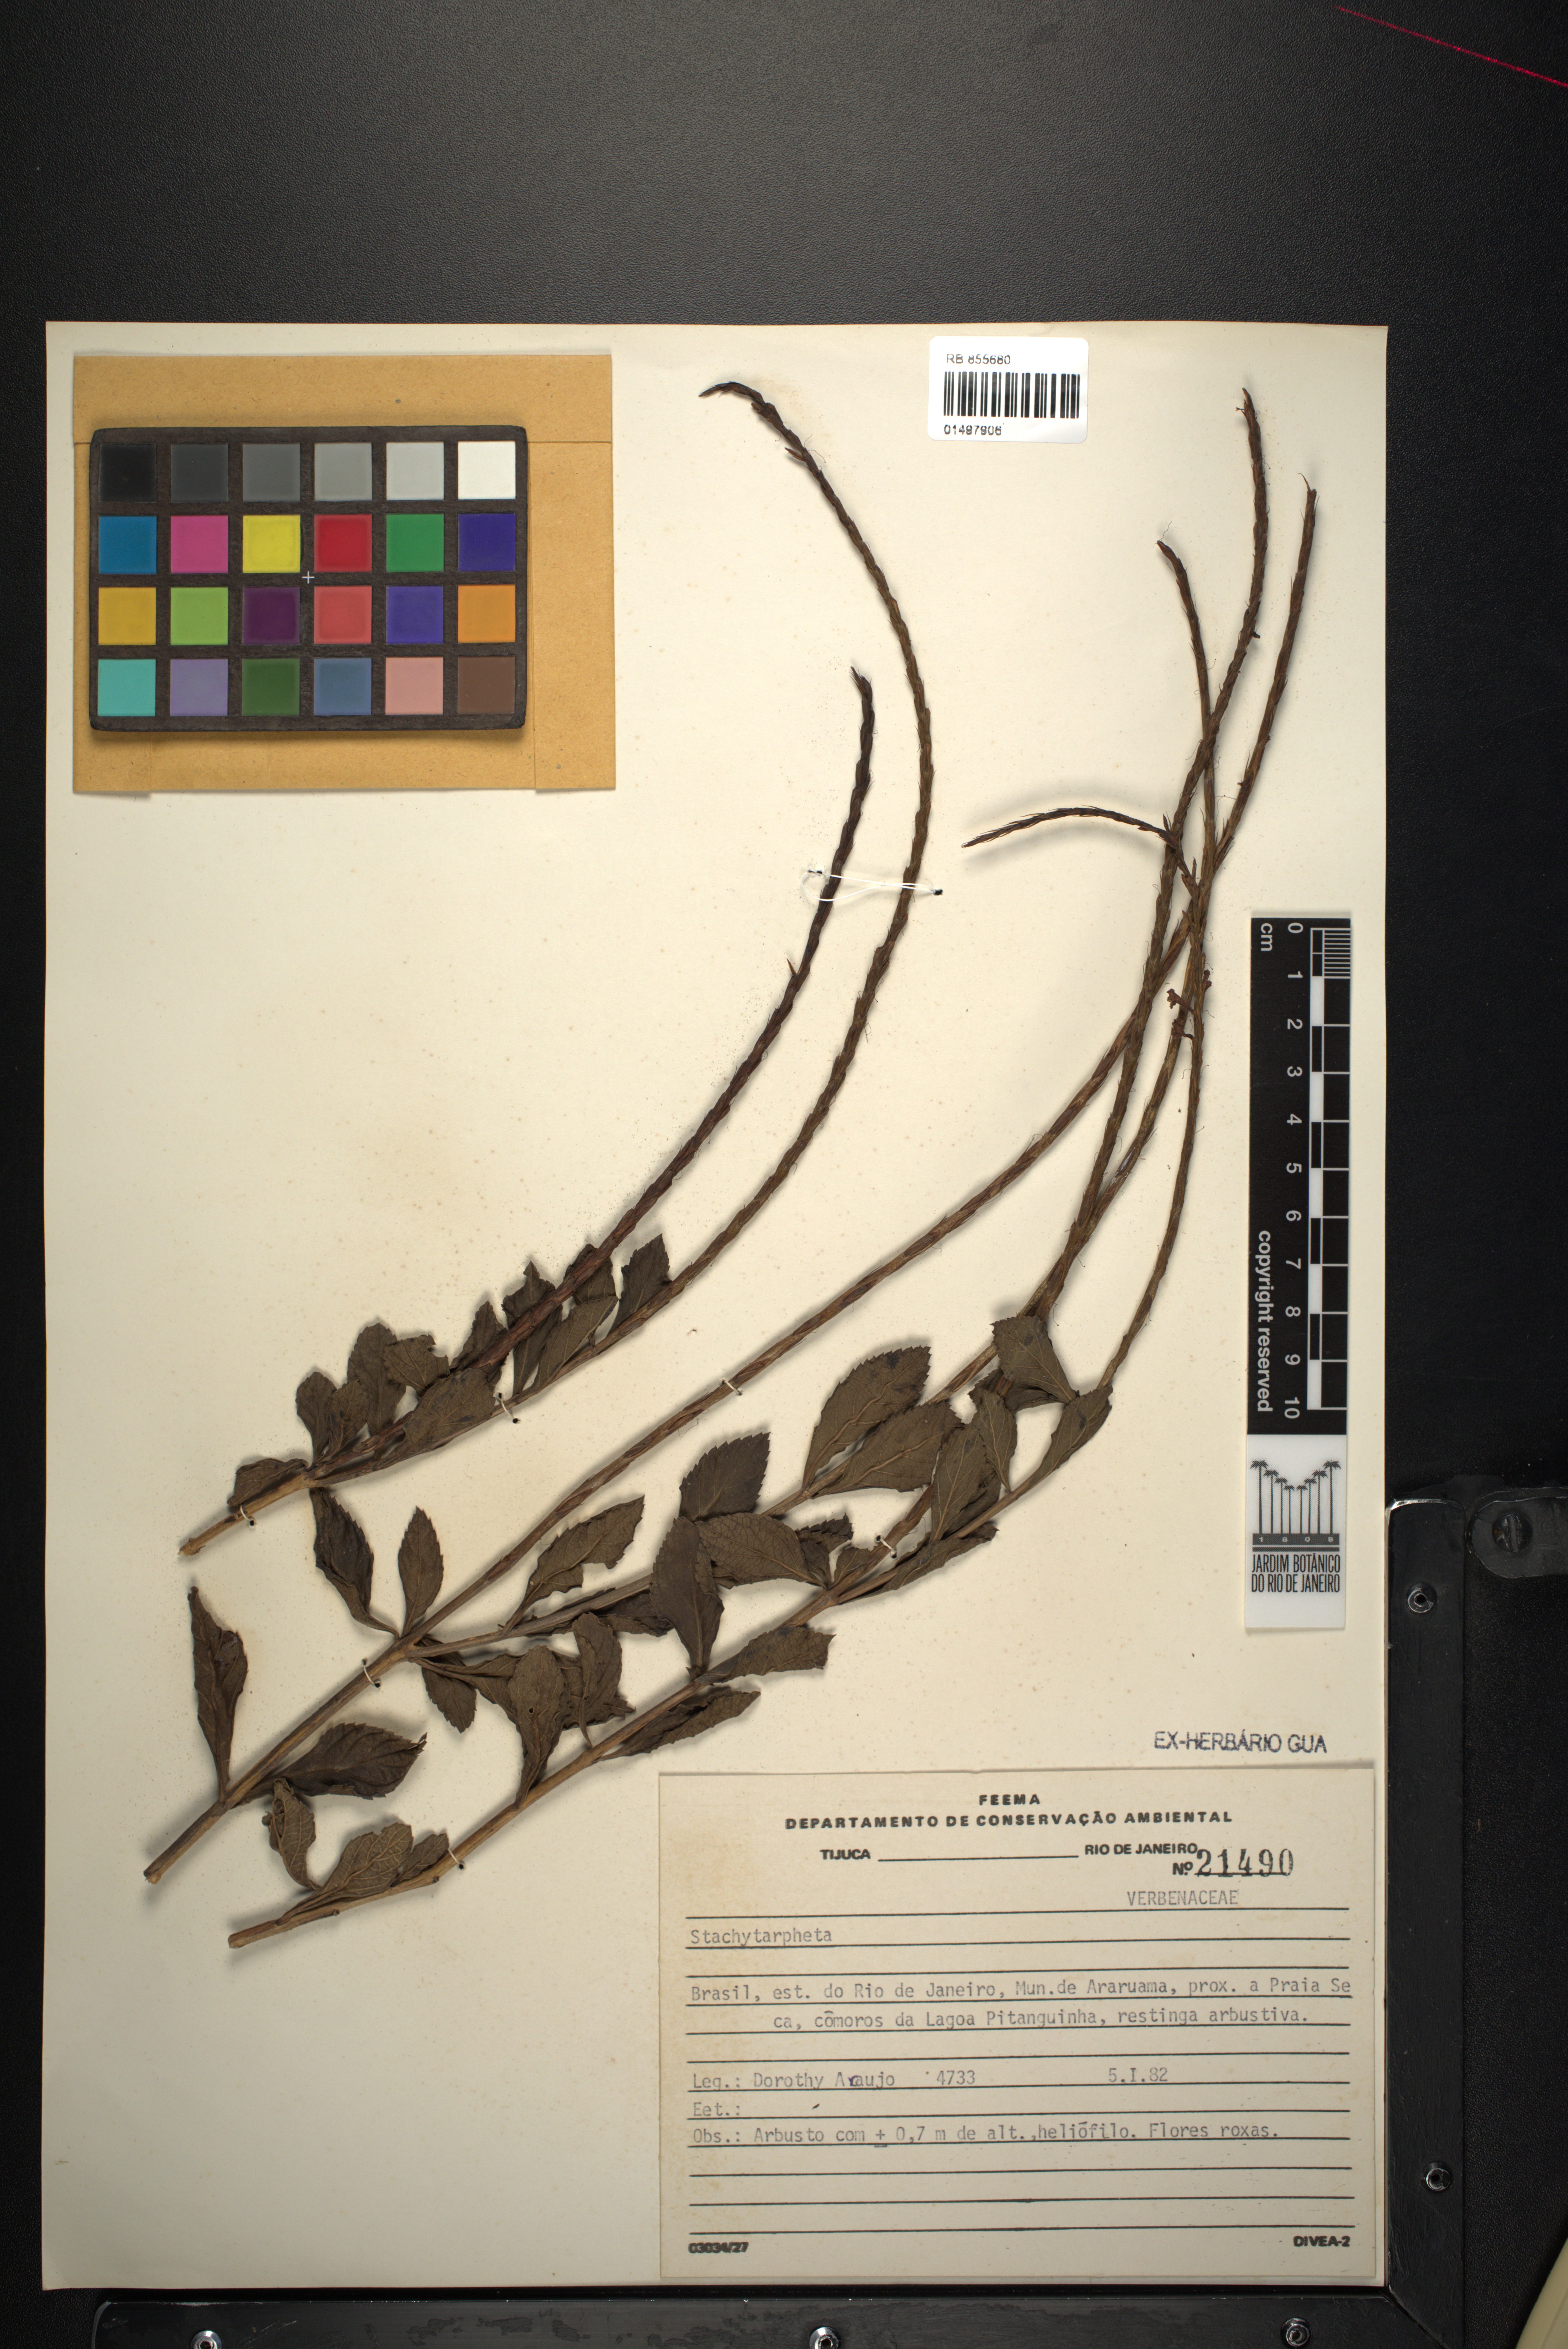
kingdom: Plantae
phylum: Tracheophyta
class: Magnoliopsida
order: Lamiales
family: Verbenaceae
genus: Stachytarpheta
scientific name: Stachytarpheta
